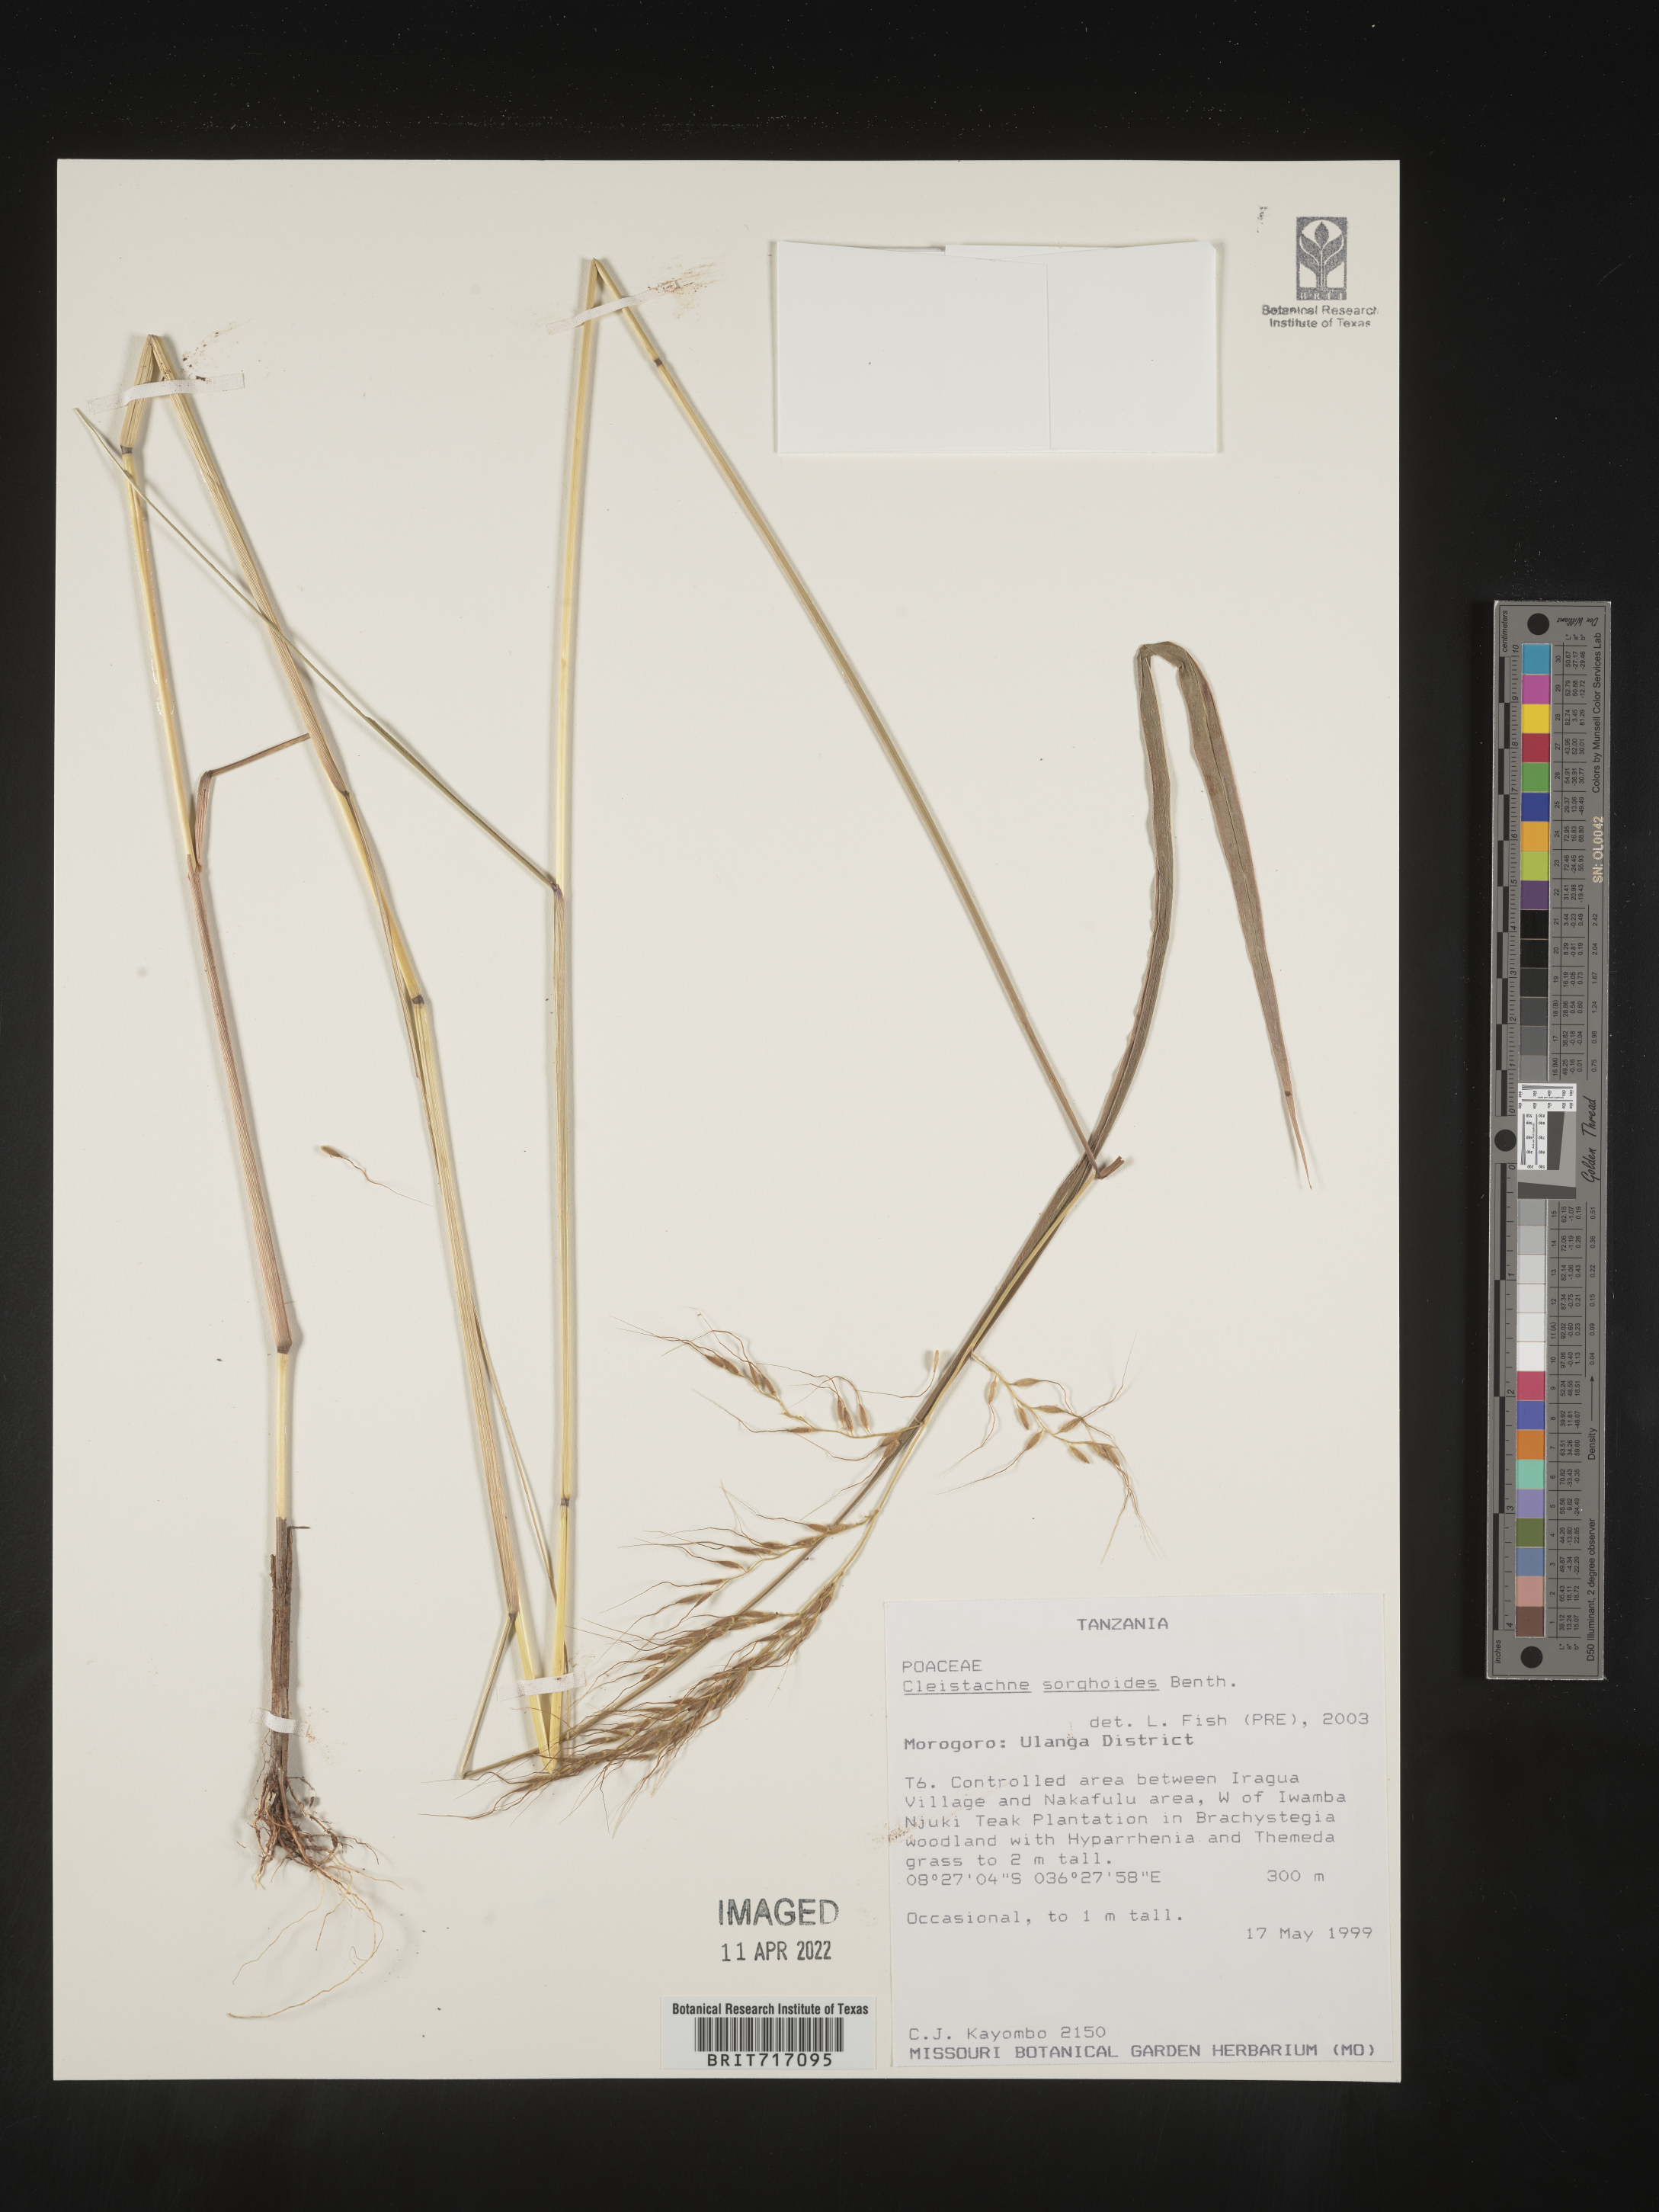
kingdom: Plantae
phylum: Tracheophyta
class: Liliopsida
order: Poales
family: Poaceae
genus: Cleistachne
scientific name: Cleistachne
